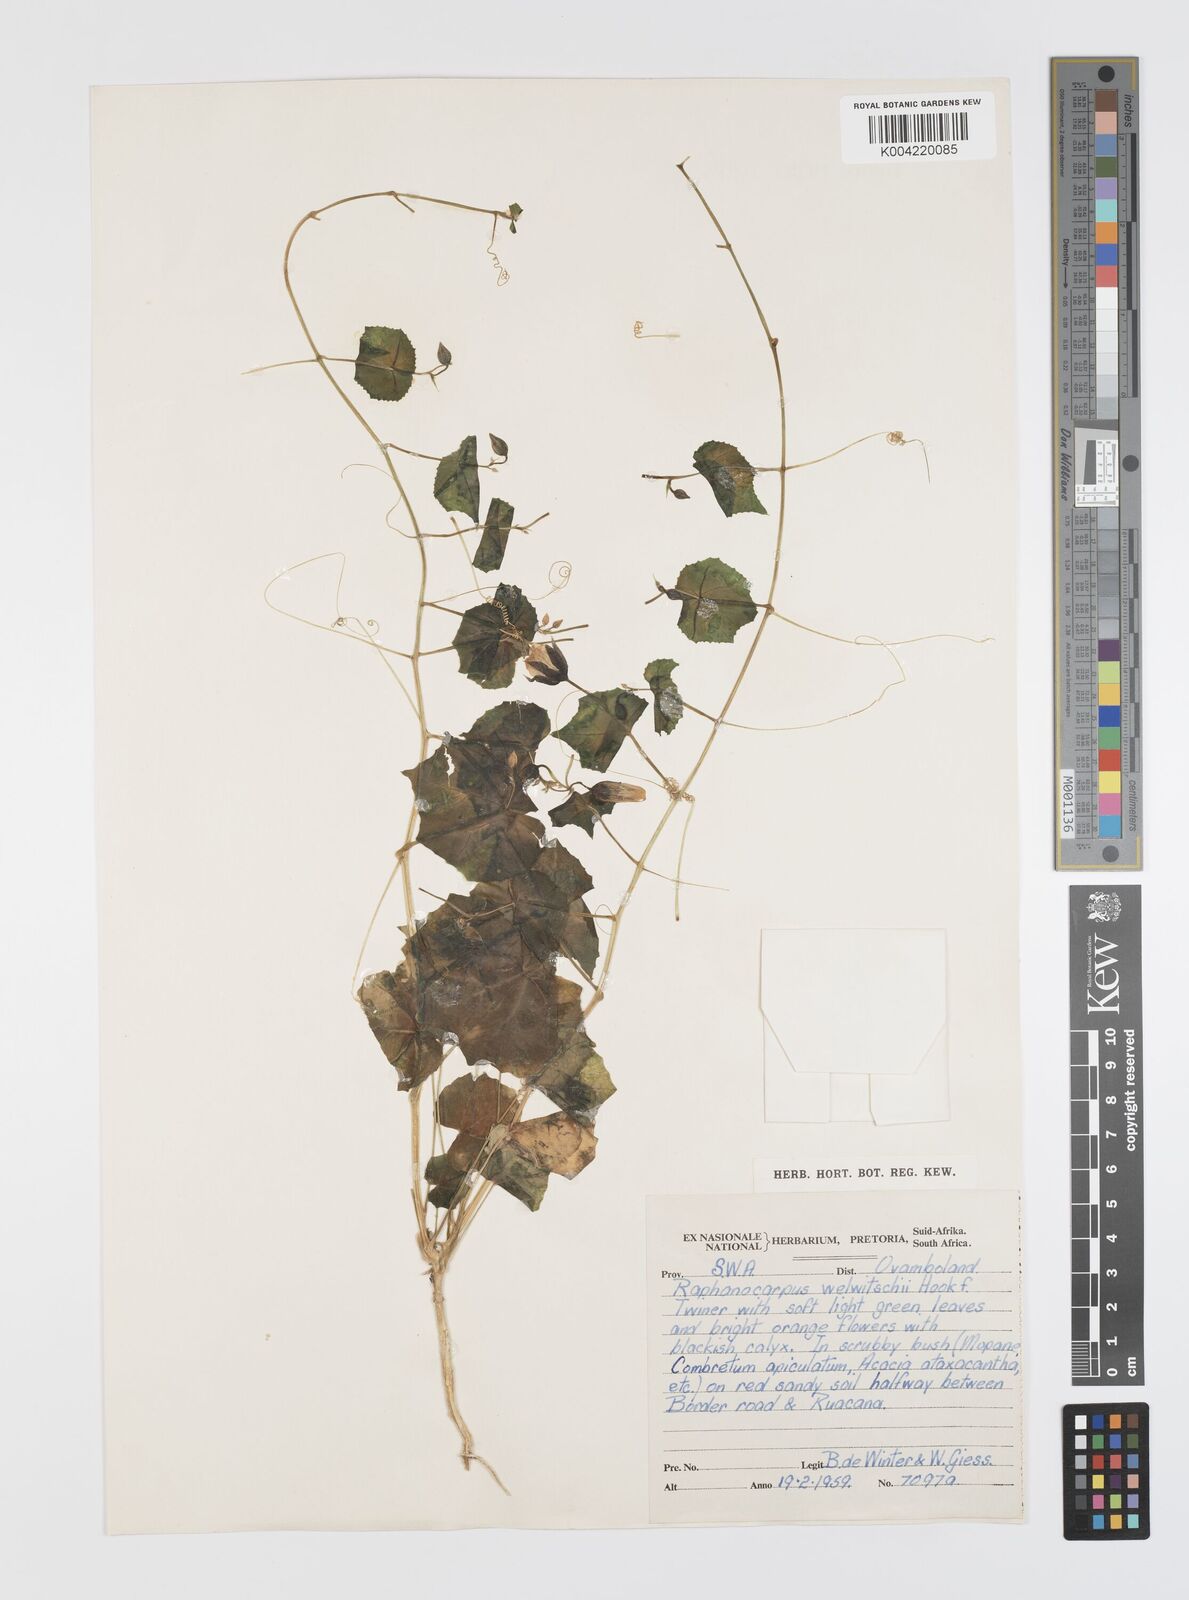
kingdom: Plantae
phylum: Tracheophyta
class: Magnoliopsida
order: Cucurbitales
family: Cucurbitaceae
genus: Momordica
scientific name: Momordica
